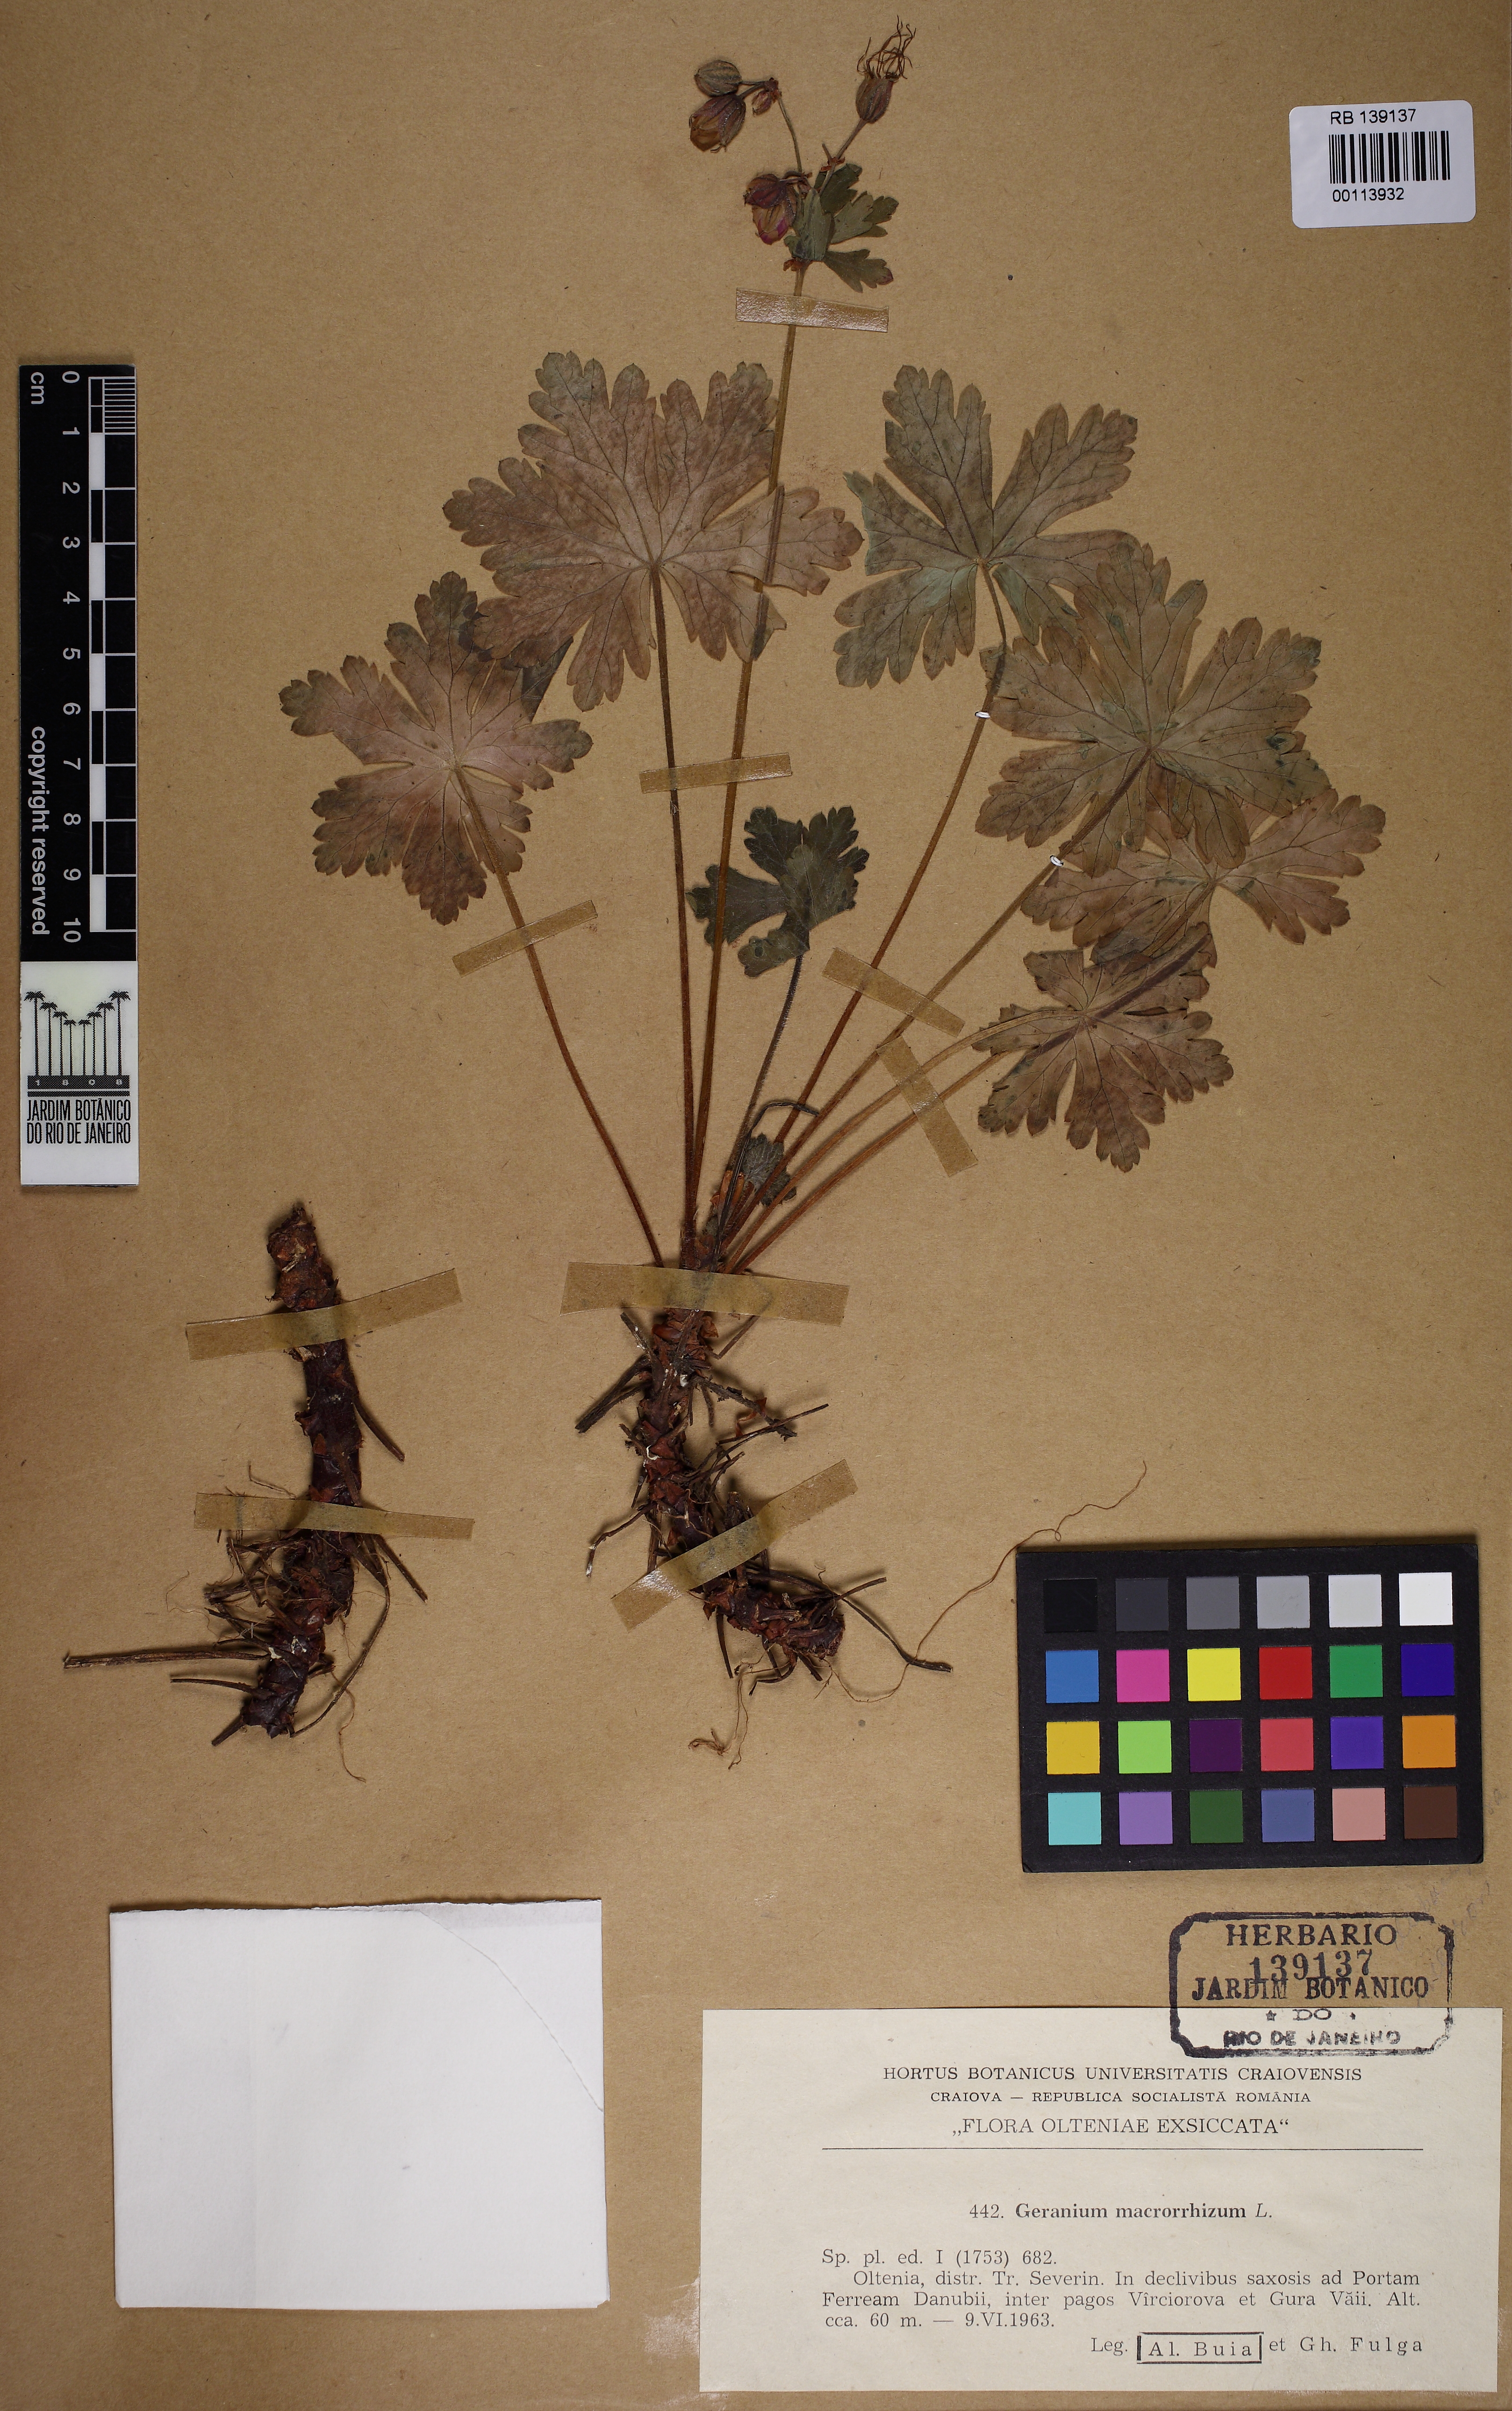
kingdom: Plantae
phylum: Tracheophyta
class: Magnoliopsida
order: Geraniales
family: Geraniaceae
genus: Geranium
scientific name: Geranium macrorrhizum
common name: Rock crane's-bill
